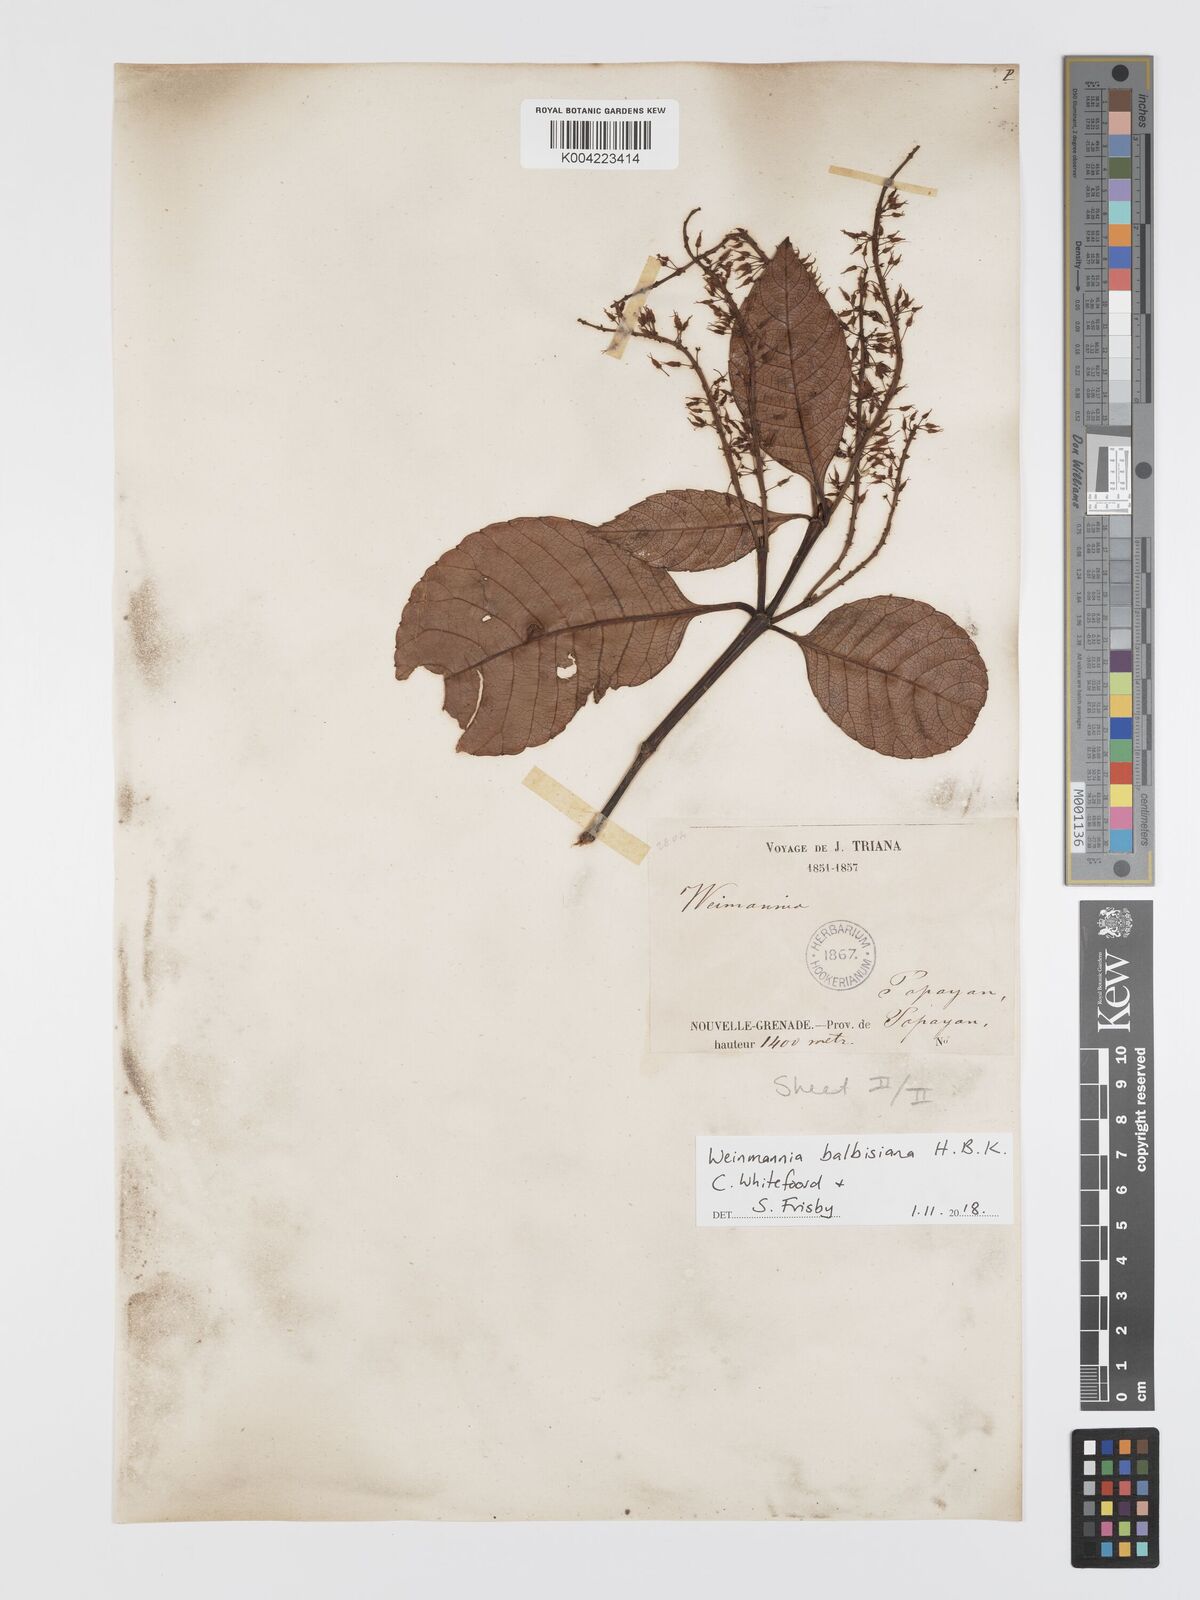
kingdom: Plantae
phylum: Tracheophyta
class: Magnoliopsida
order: Oxalidales
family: Cunoniaceae
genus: Weinmannia
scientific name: Weinmannia balbisana
